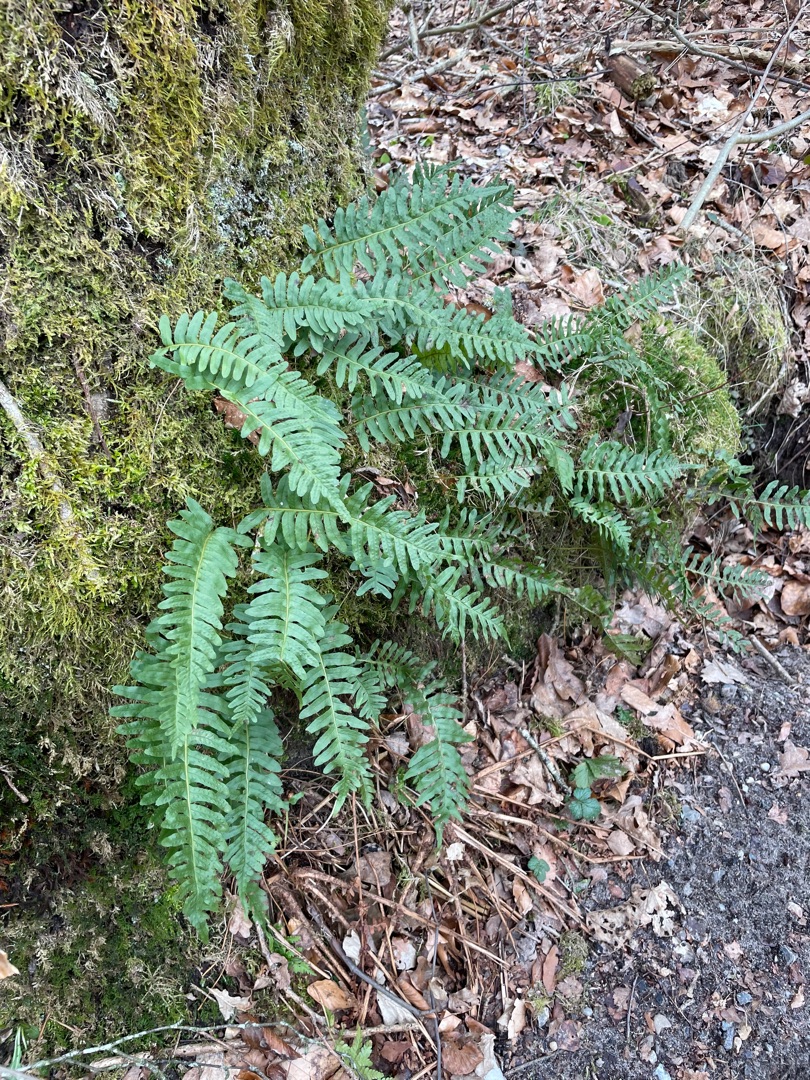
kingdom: Plantae
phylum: Tracheophyta
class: Polypodiopsida
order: Polypodiales
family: Polypodiaceae
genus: Polypodium
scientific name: Polypodium vulgare
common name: Almindelig engelsød
